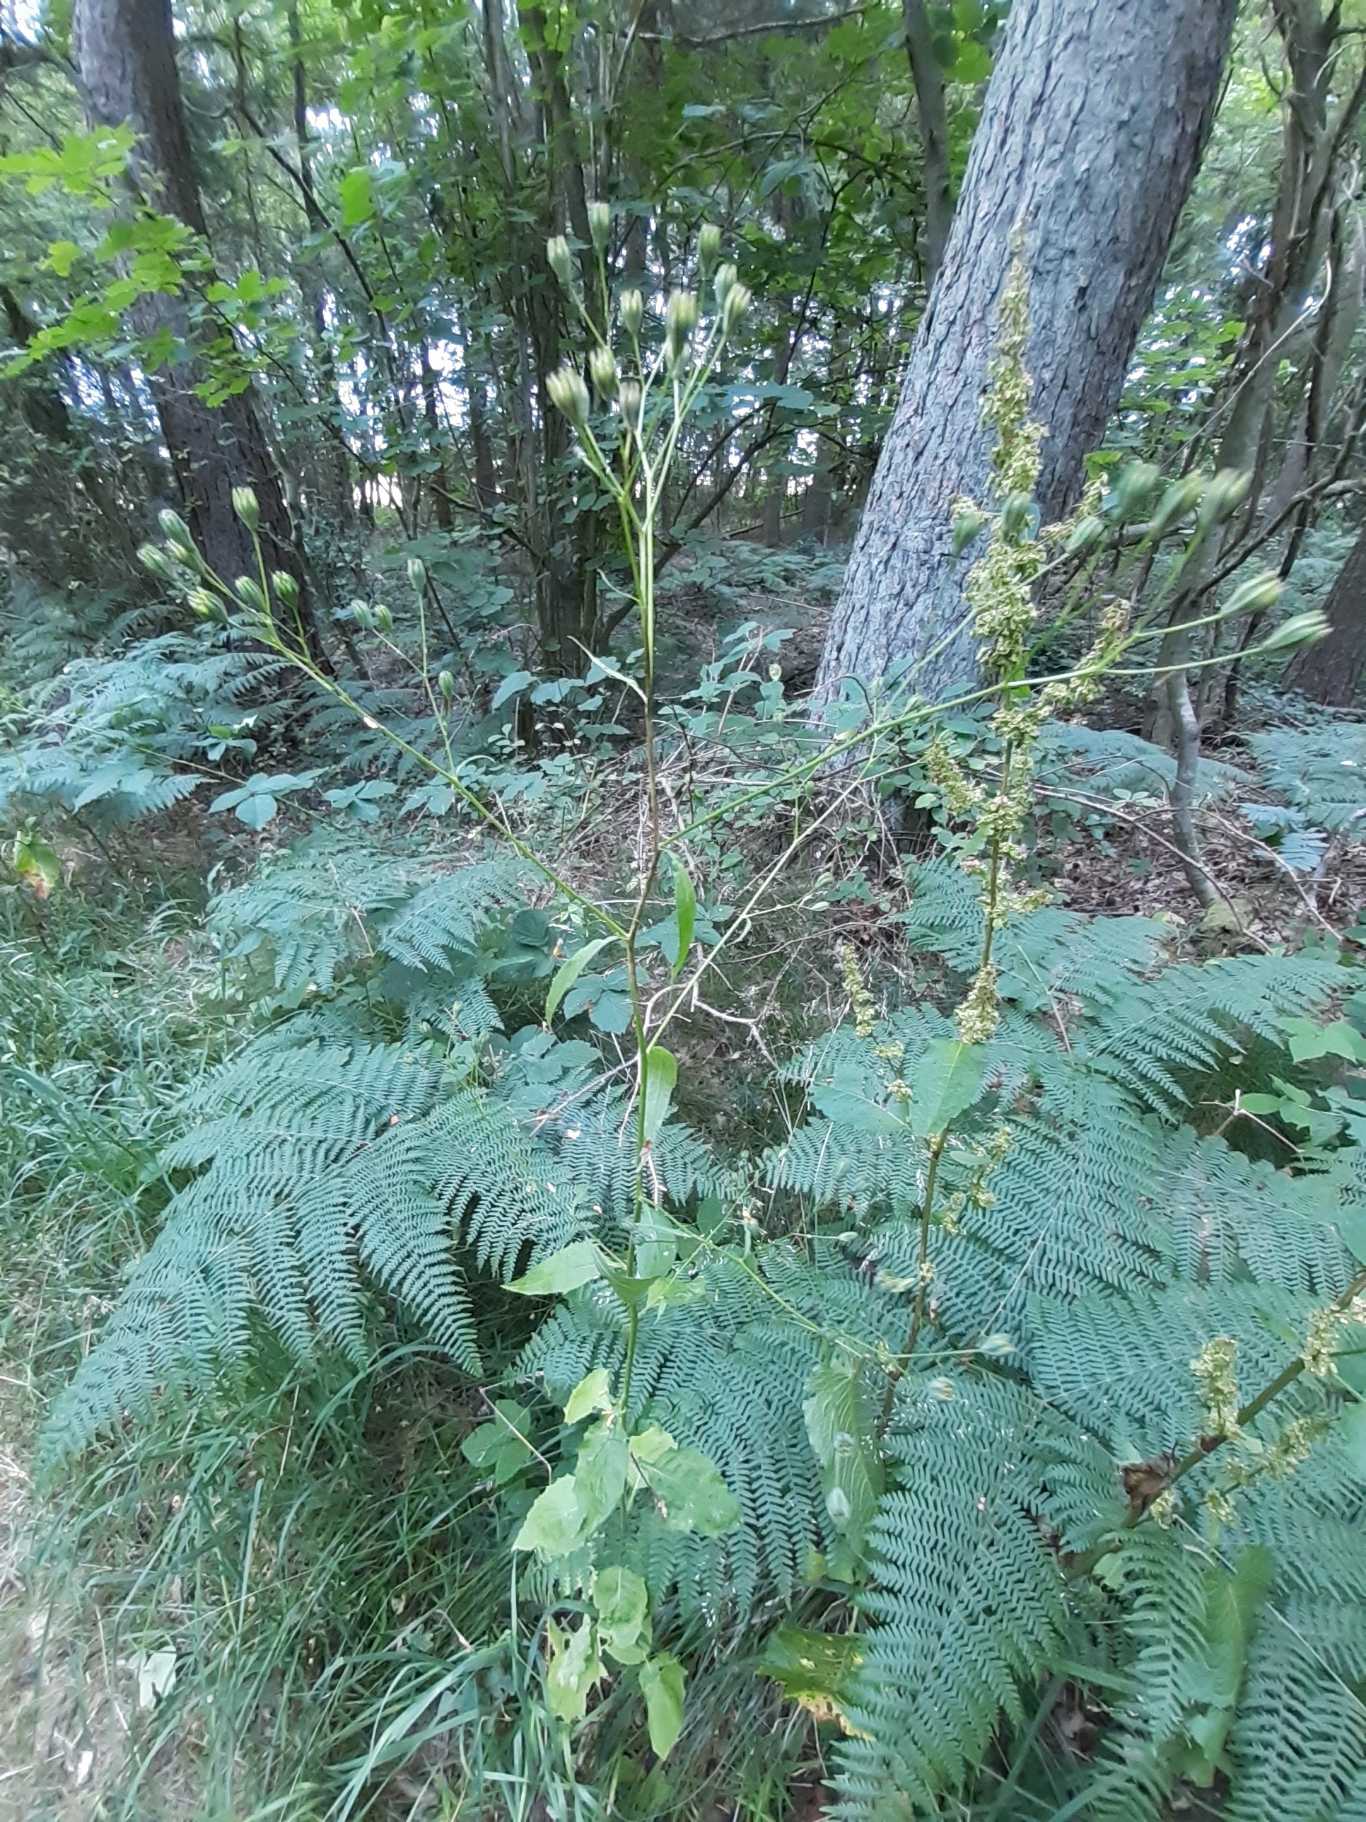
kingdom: Plantae
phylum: Tracheophyta
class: Magnoliopsida
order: Asterales
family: Asteraceae
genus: Lapsana
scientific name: Lapsana communis
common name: Haremad
